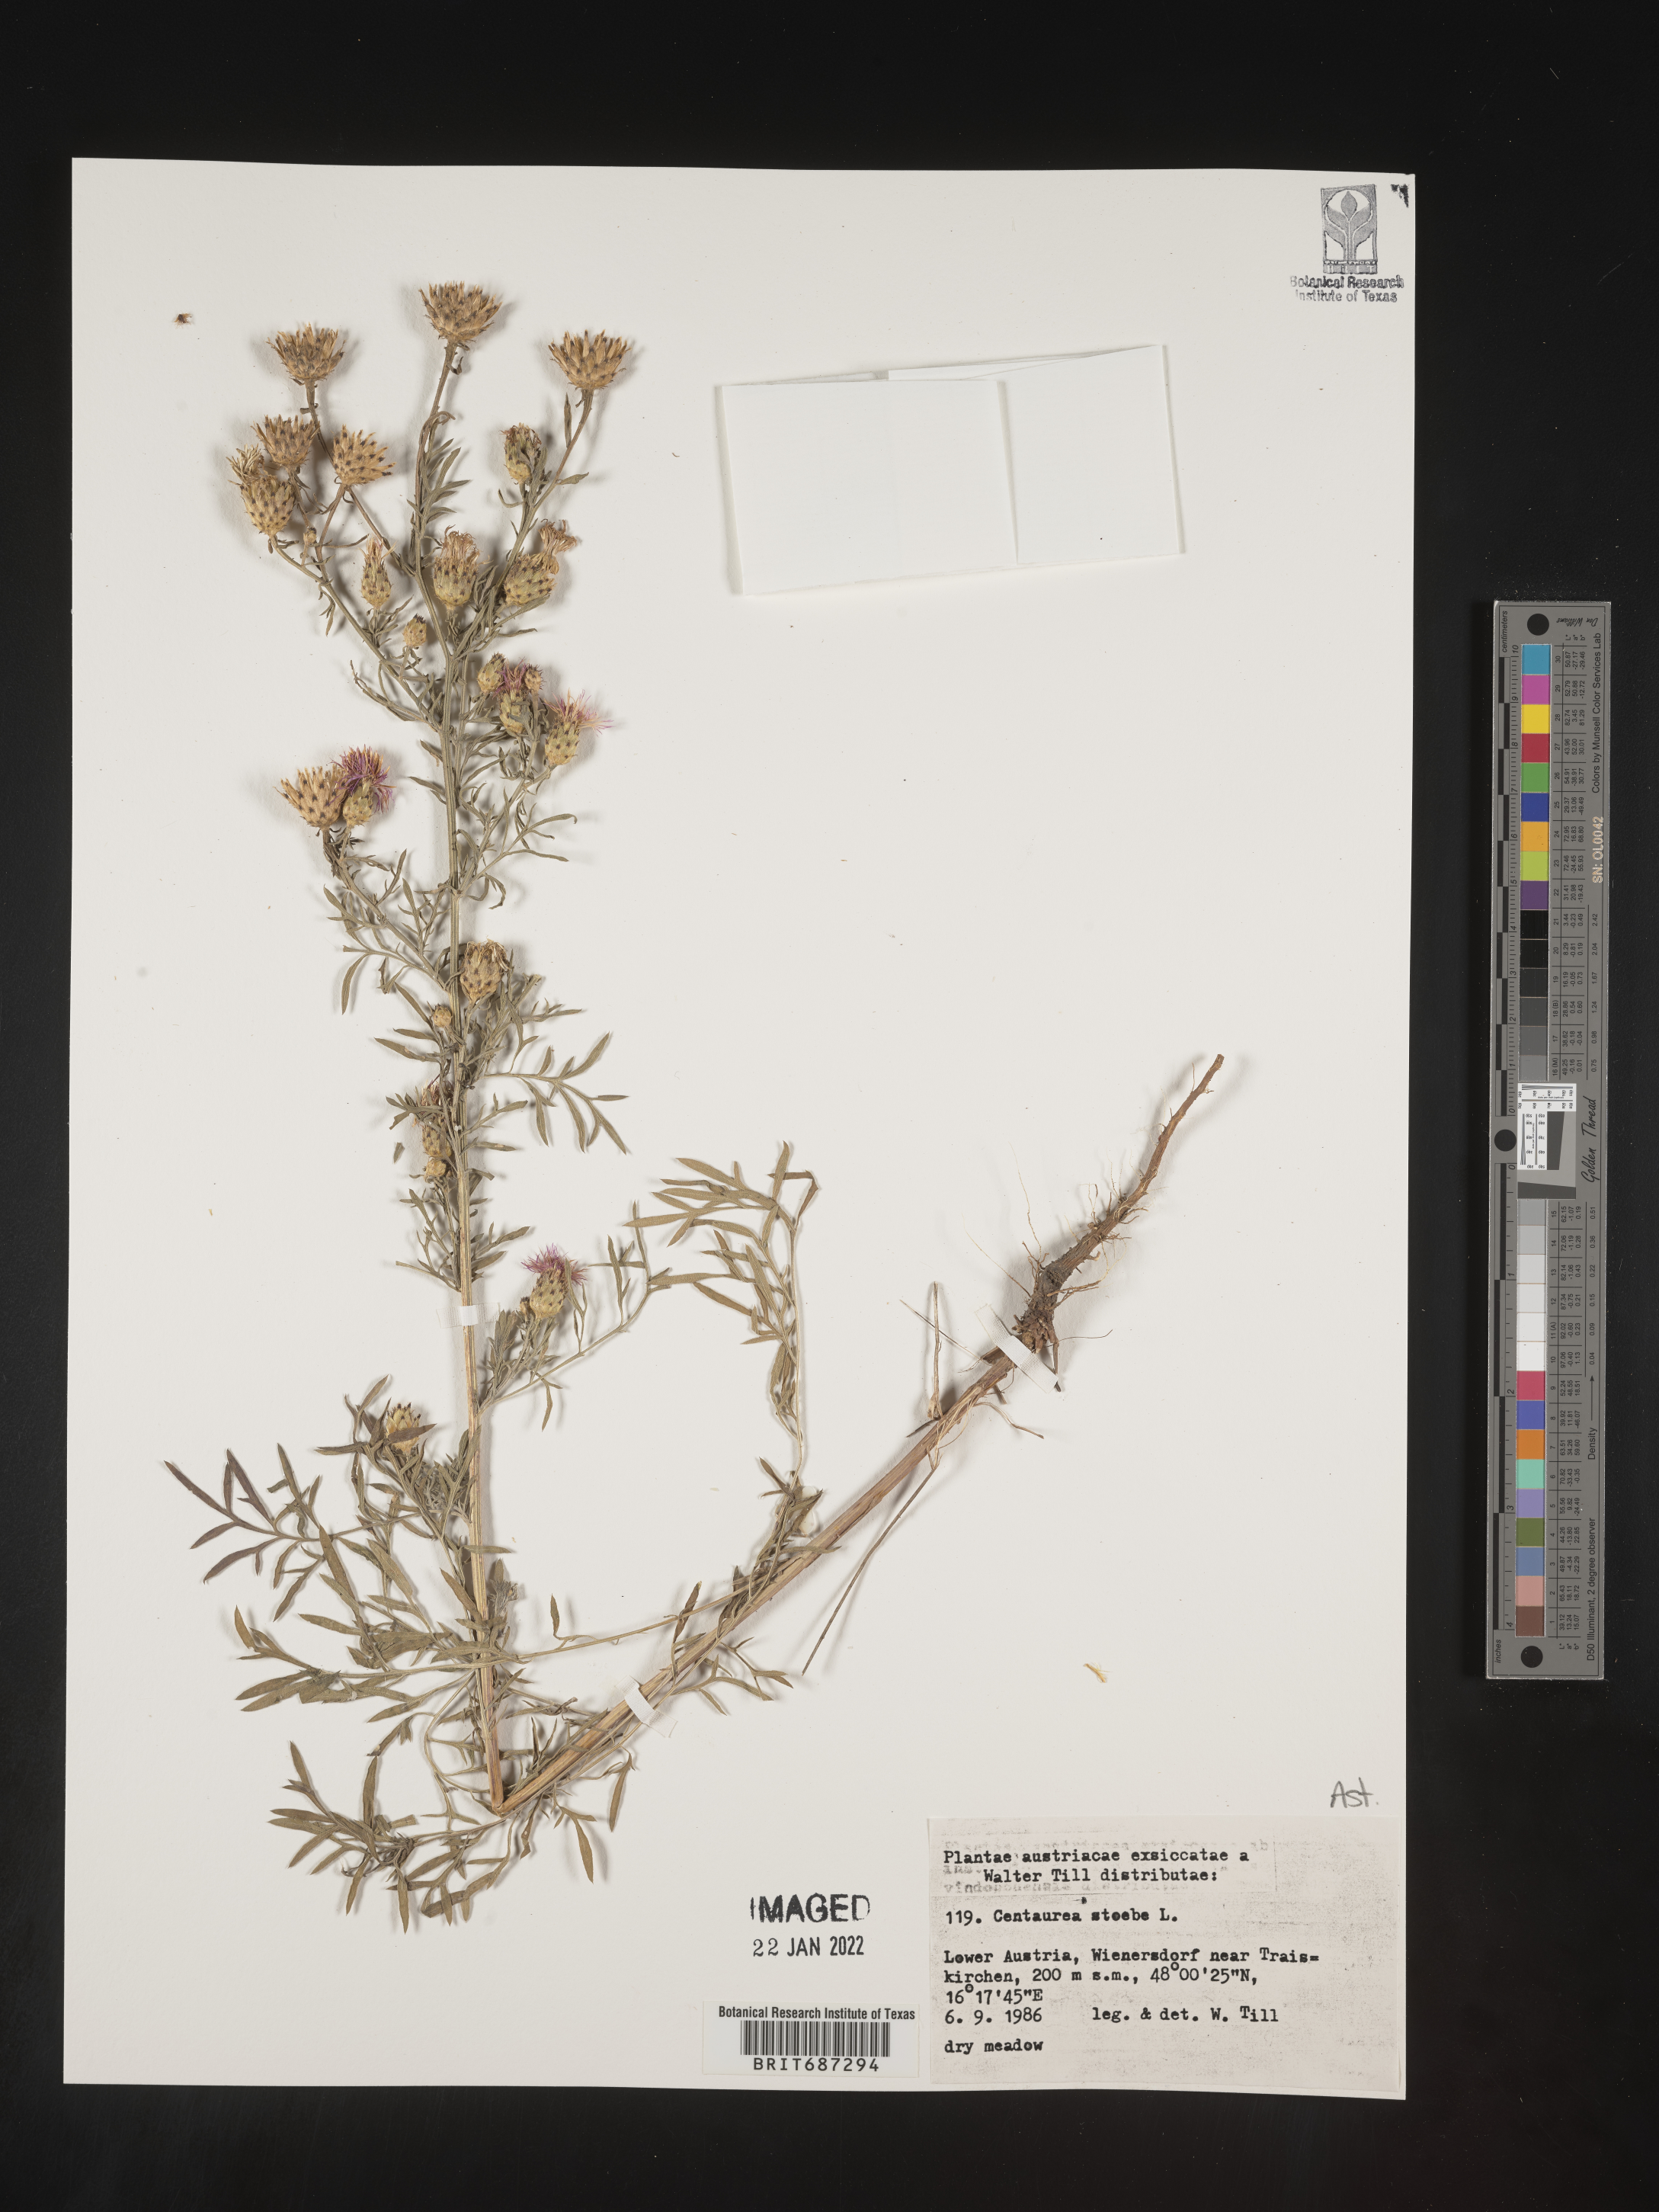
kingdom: Plantae
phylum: Tracheophyta
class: Magnoliopsida
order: Asterales
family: Asteraceae
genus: Centaurea
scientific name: Centaurea
